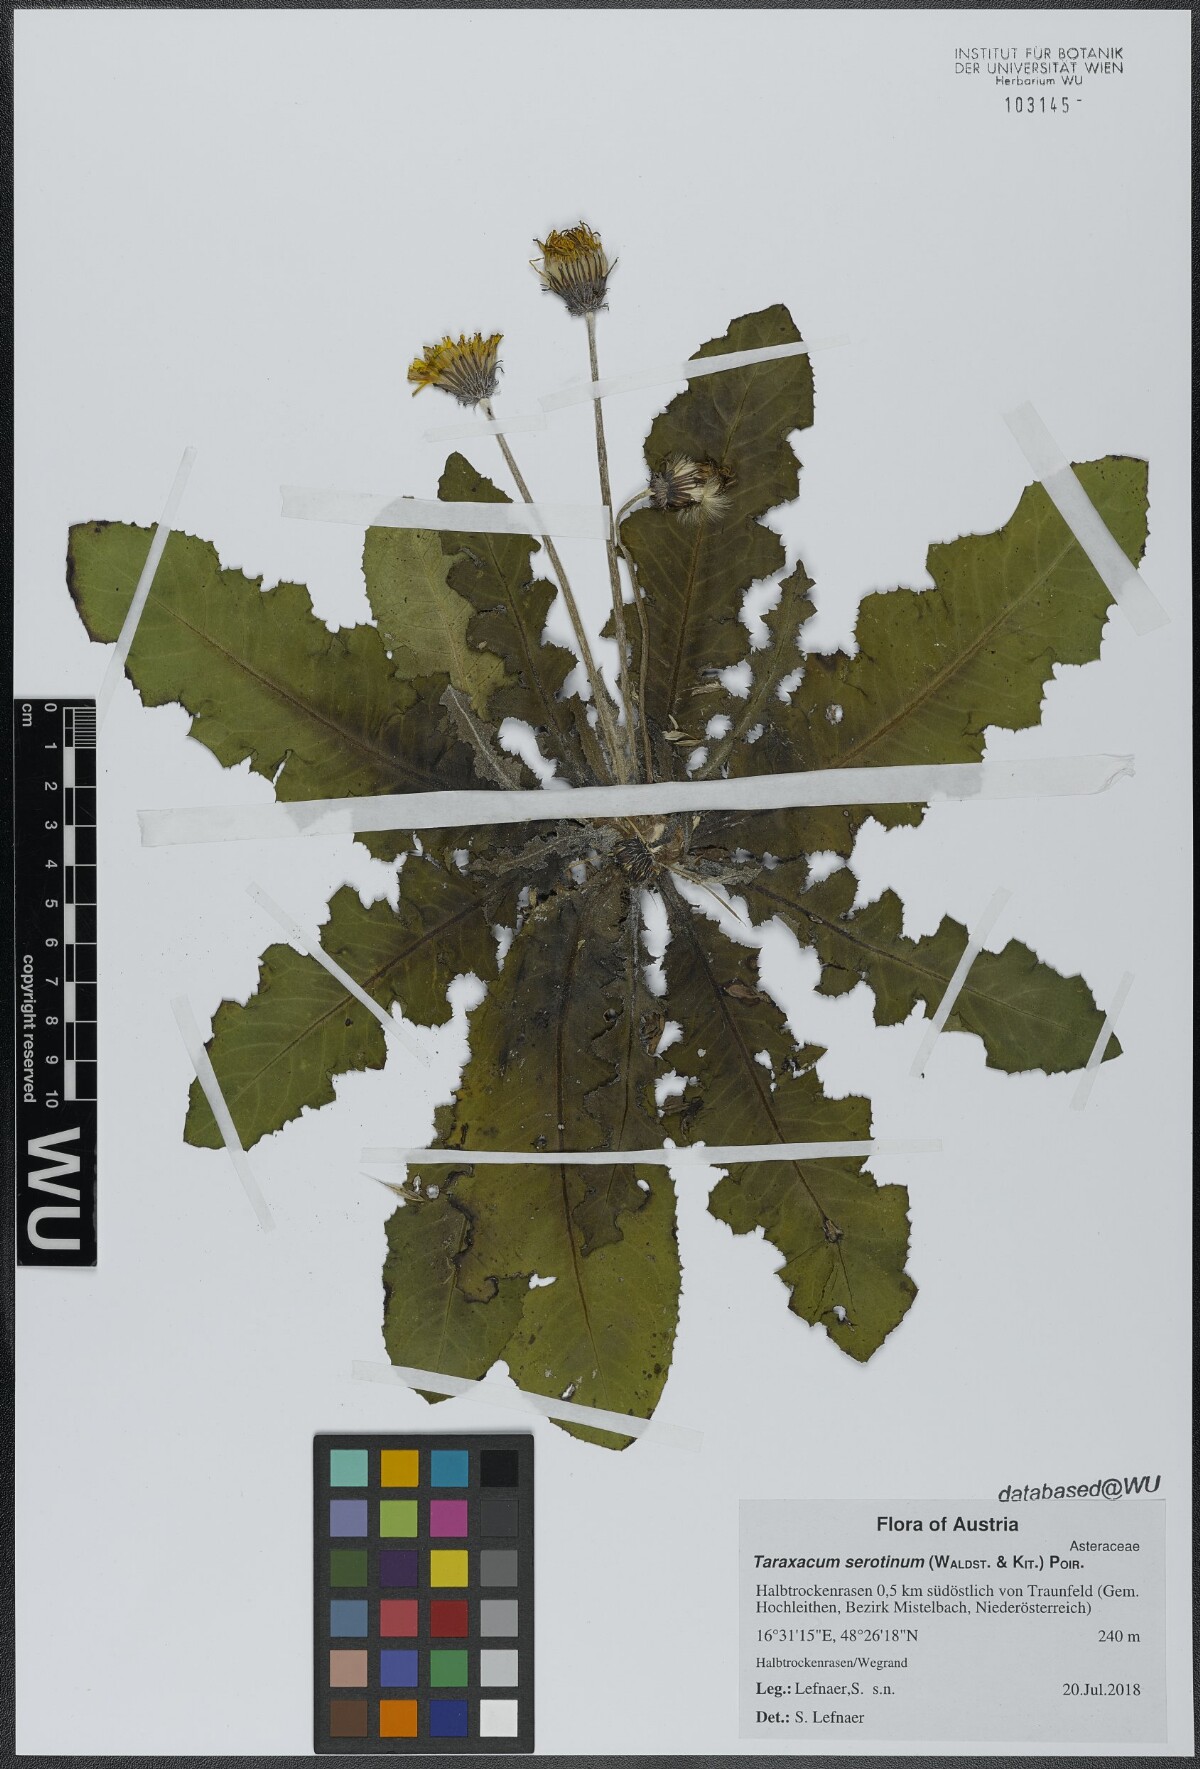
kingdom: Plantae
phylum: Tracheophyta
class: Magnoliopsida
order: Asterales
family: Asteraceae
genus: Taraxacum
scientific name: Taraxacum serotinum
